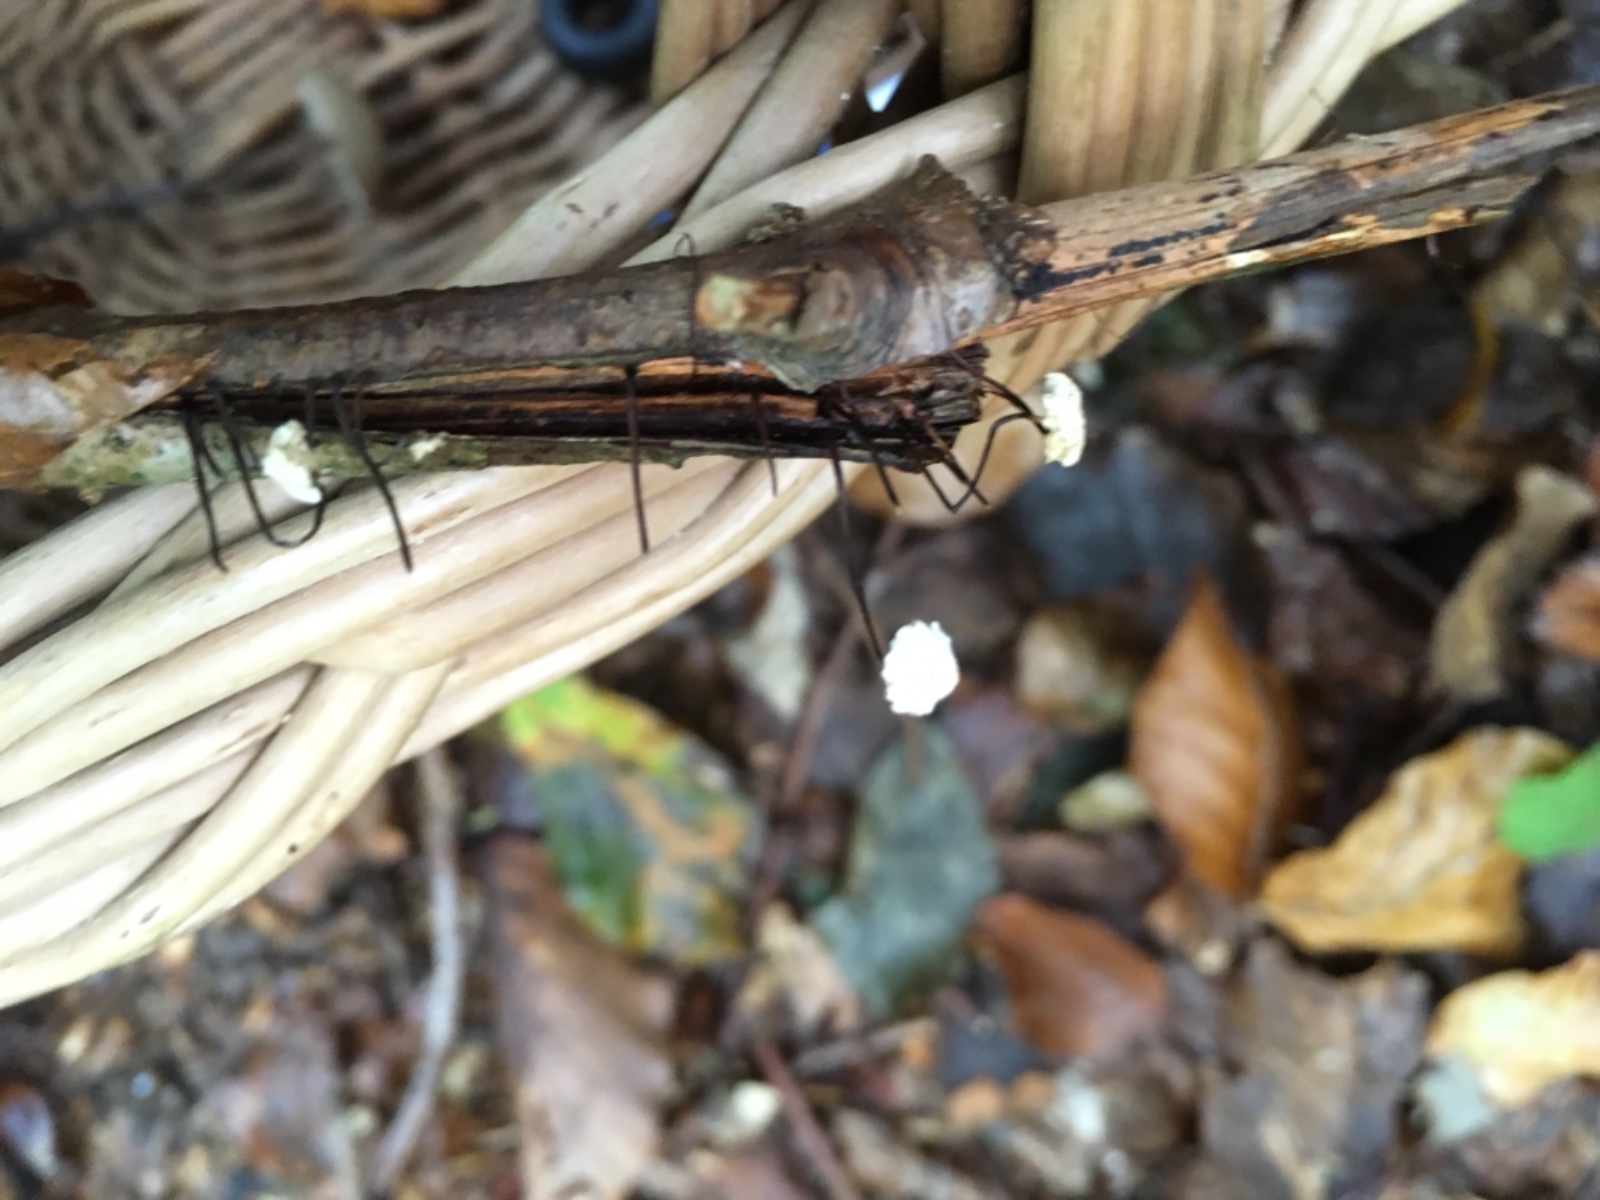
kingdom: Fungi
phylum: Basidiomycota
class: Agaricomycetes
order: Agaricales
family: Marasmiaceae
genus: Marasmius
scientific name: Marasmius rotula
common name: hjul-bruskhat
